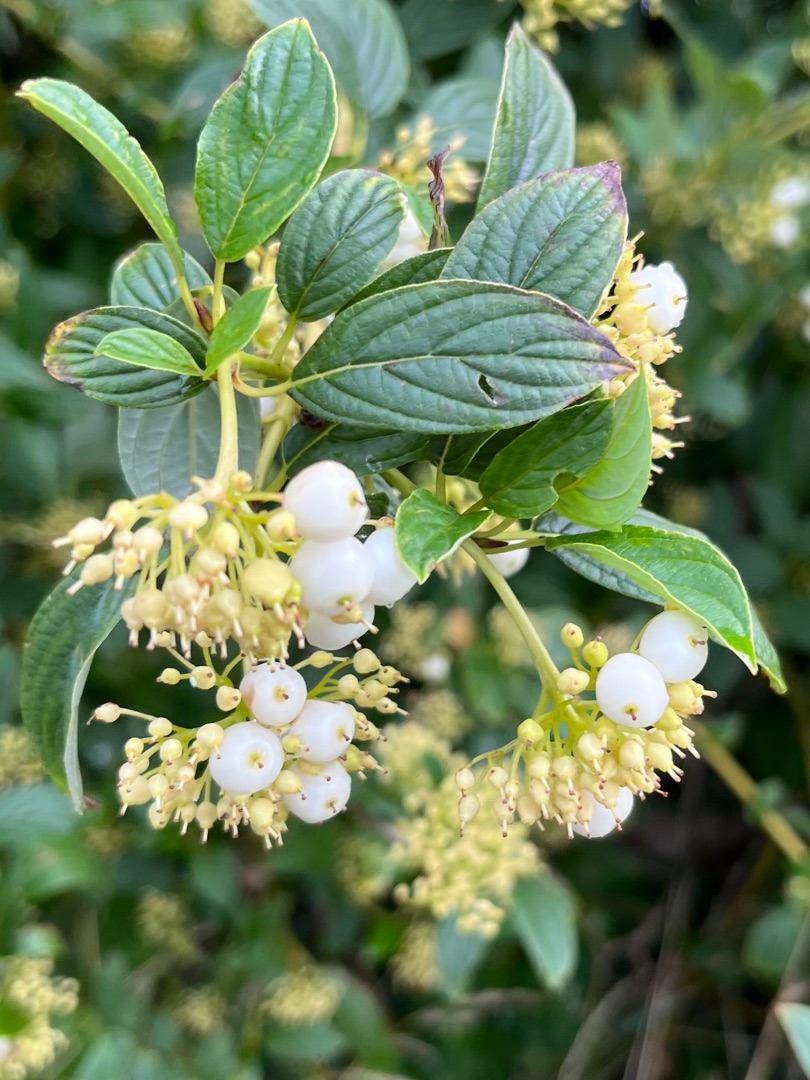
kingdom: Plantae
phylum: Tracheophyta
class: Magnoliopsida
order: Cornales
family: Cornaceae
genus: Cornus
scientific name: Cornus sericea
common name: Krybende kornel
